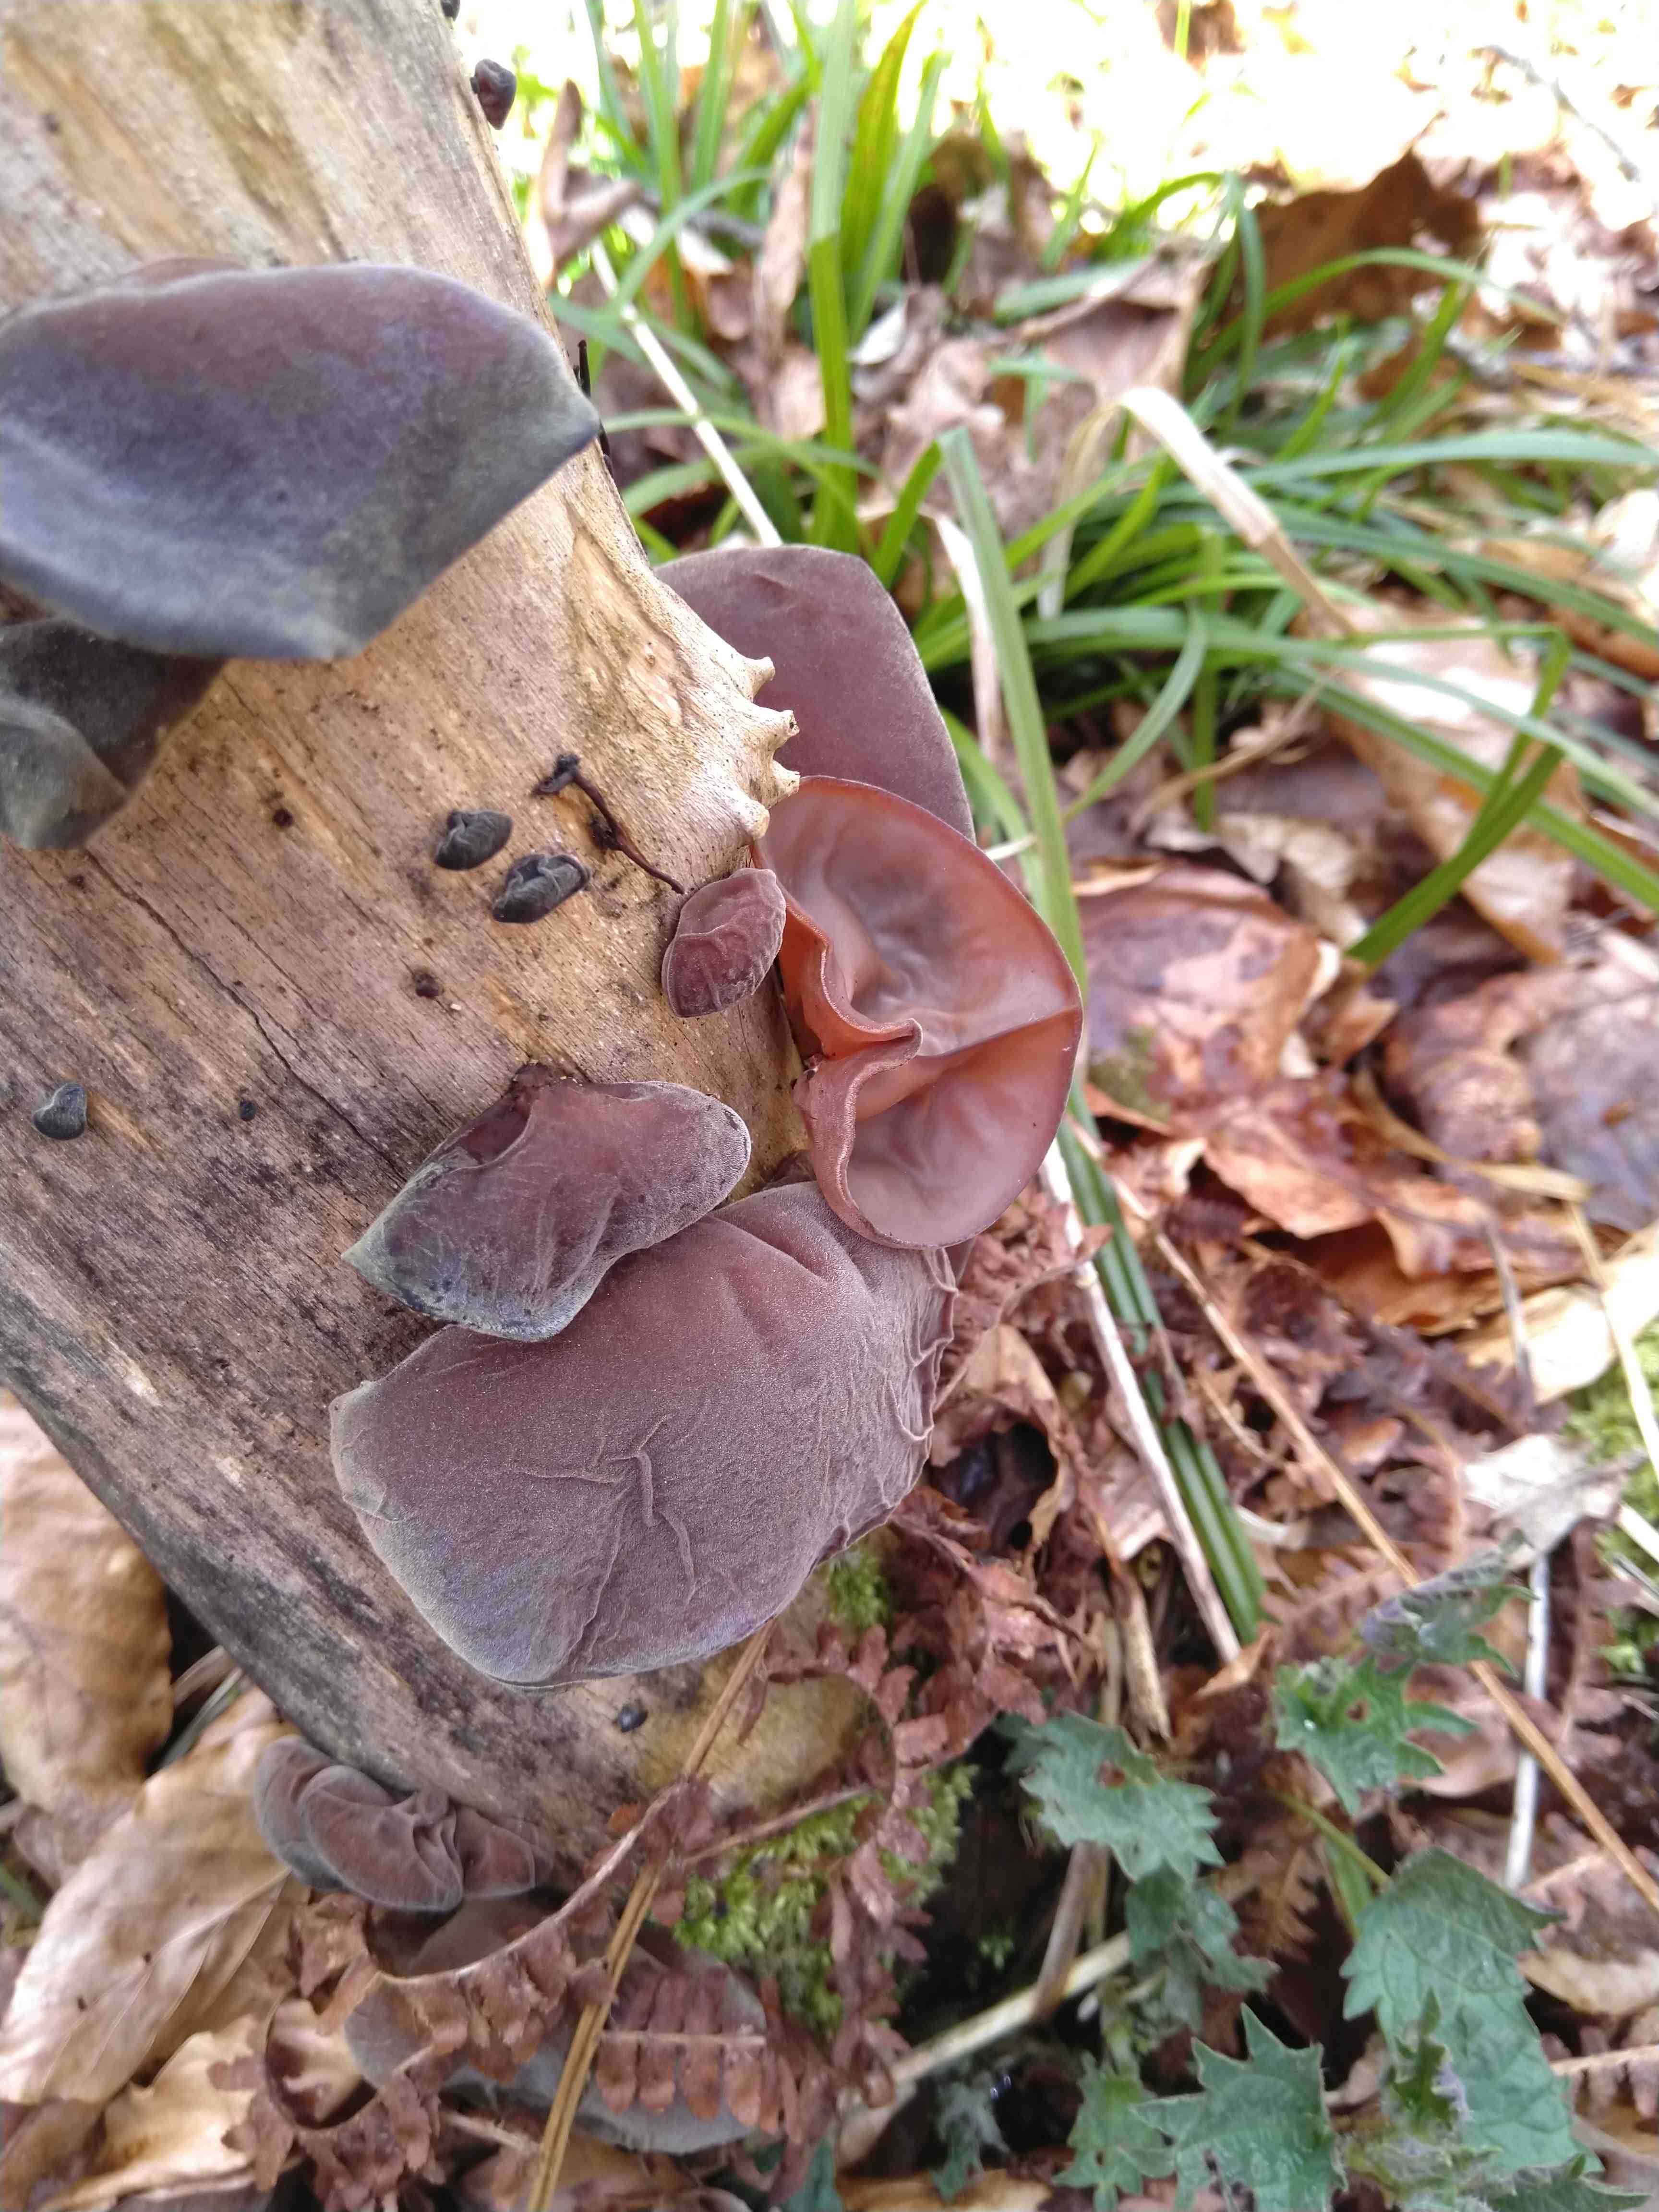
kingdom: Fungi
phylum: Basidiomycota
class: Agaricomycetes
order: Auriculariales
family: Auriculariaceae
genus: Auricularia
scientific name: Auricularia auricula-judae
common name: almindelig judasøre
